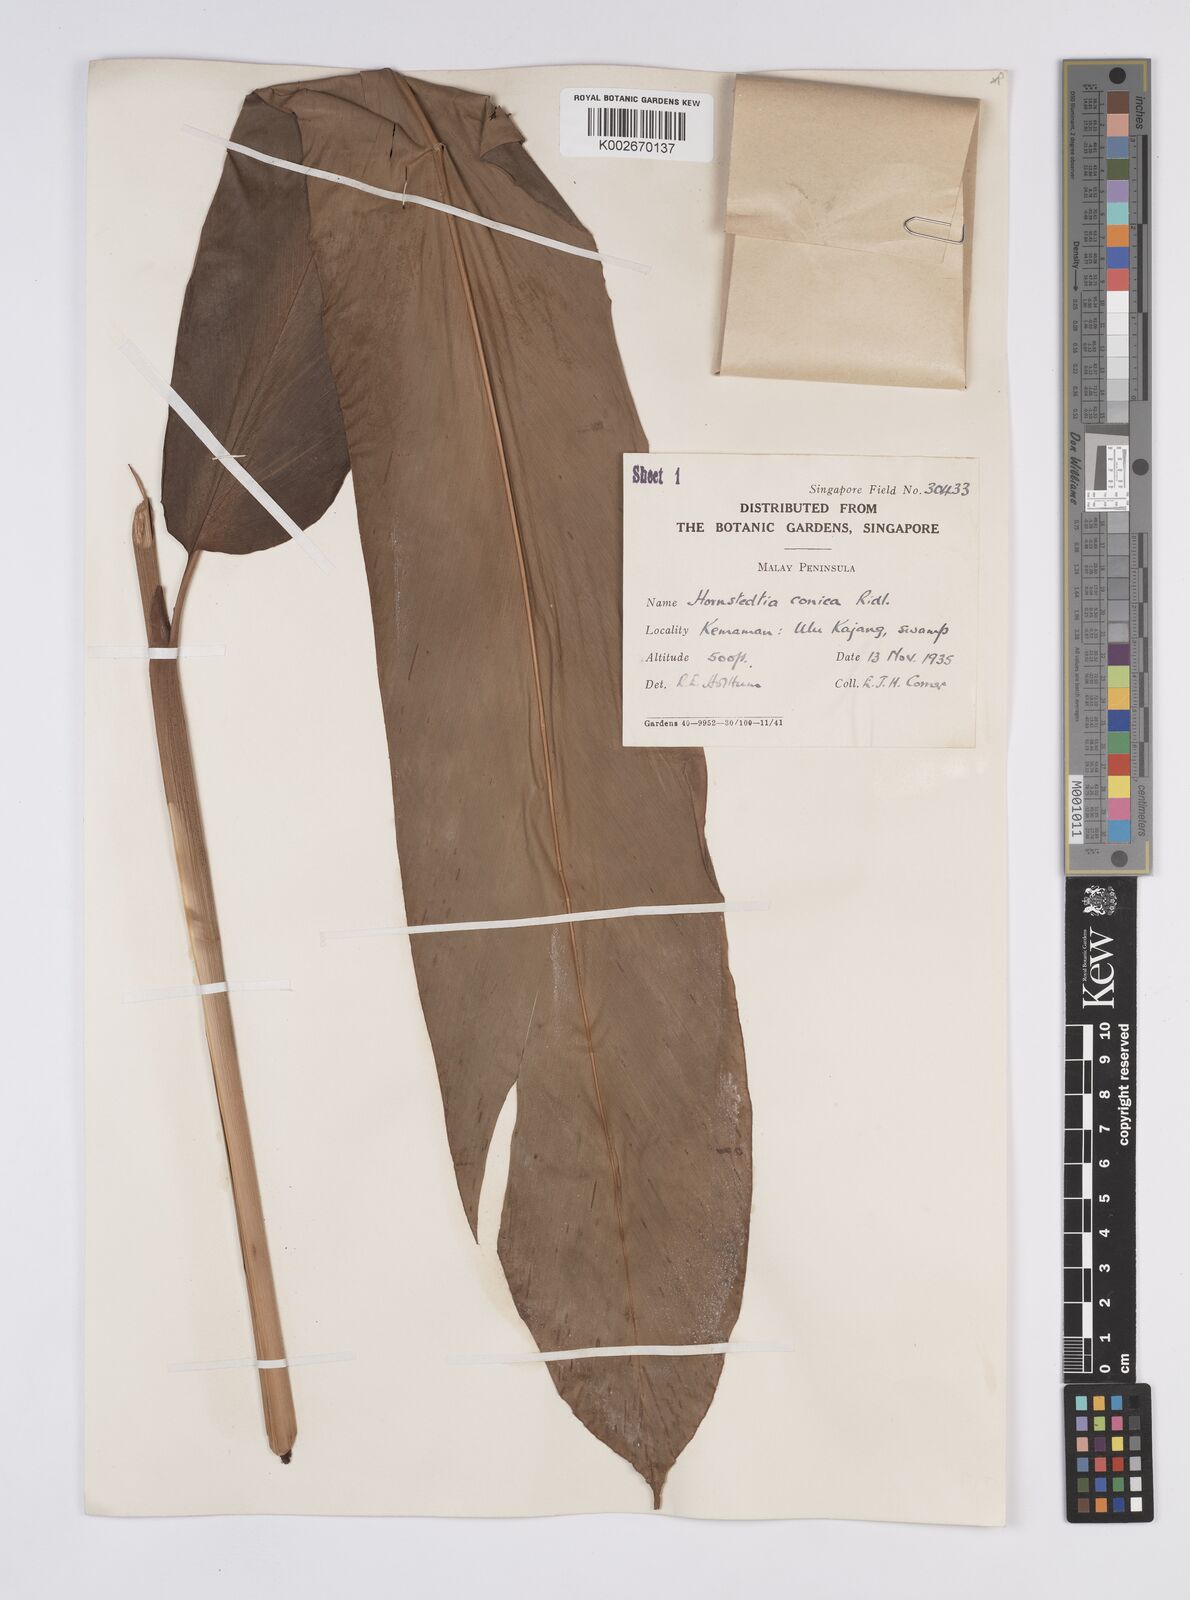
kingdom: Plantae
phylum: Tracheophyta
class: Liliopsida
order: Zingiberales
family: Zingiberaceae
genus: Hornstedtia
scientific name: Hornstedtia conica
